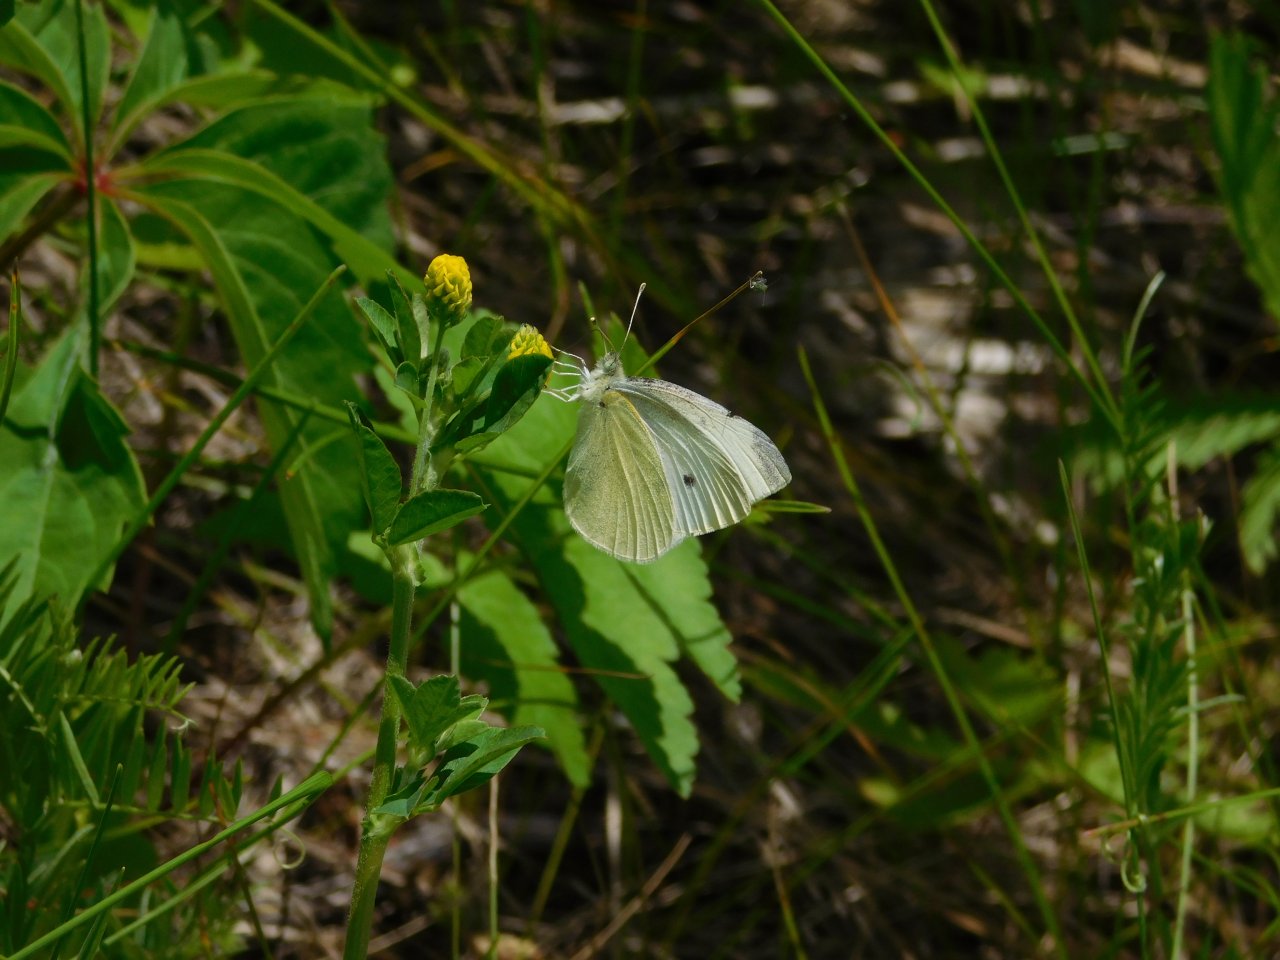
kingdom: Animalia
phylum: Arthropoda
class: Insecta
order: Lepidoptera
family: Pieridae
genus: Pieris
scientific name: Pieris rapae
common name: Cabbage White
